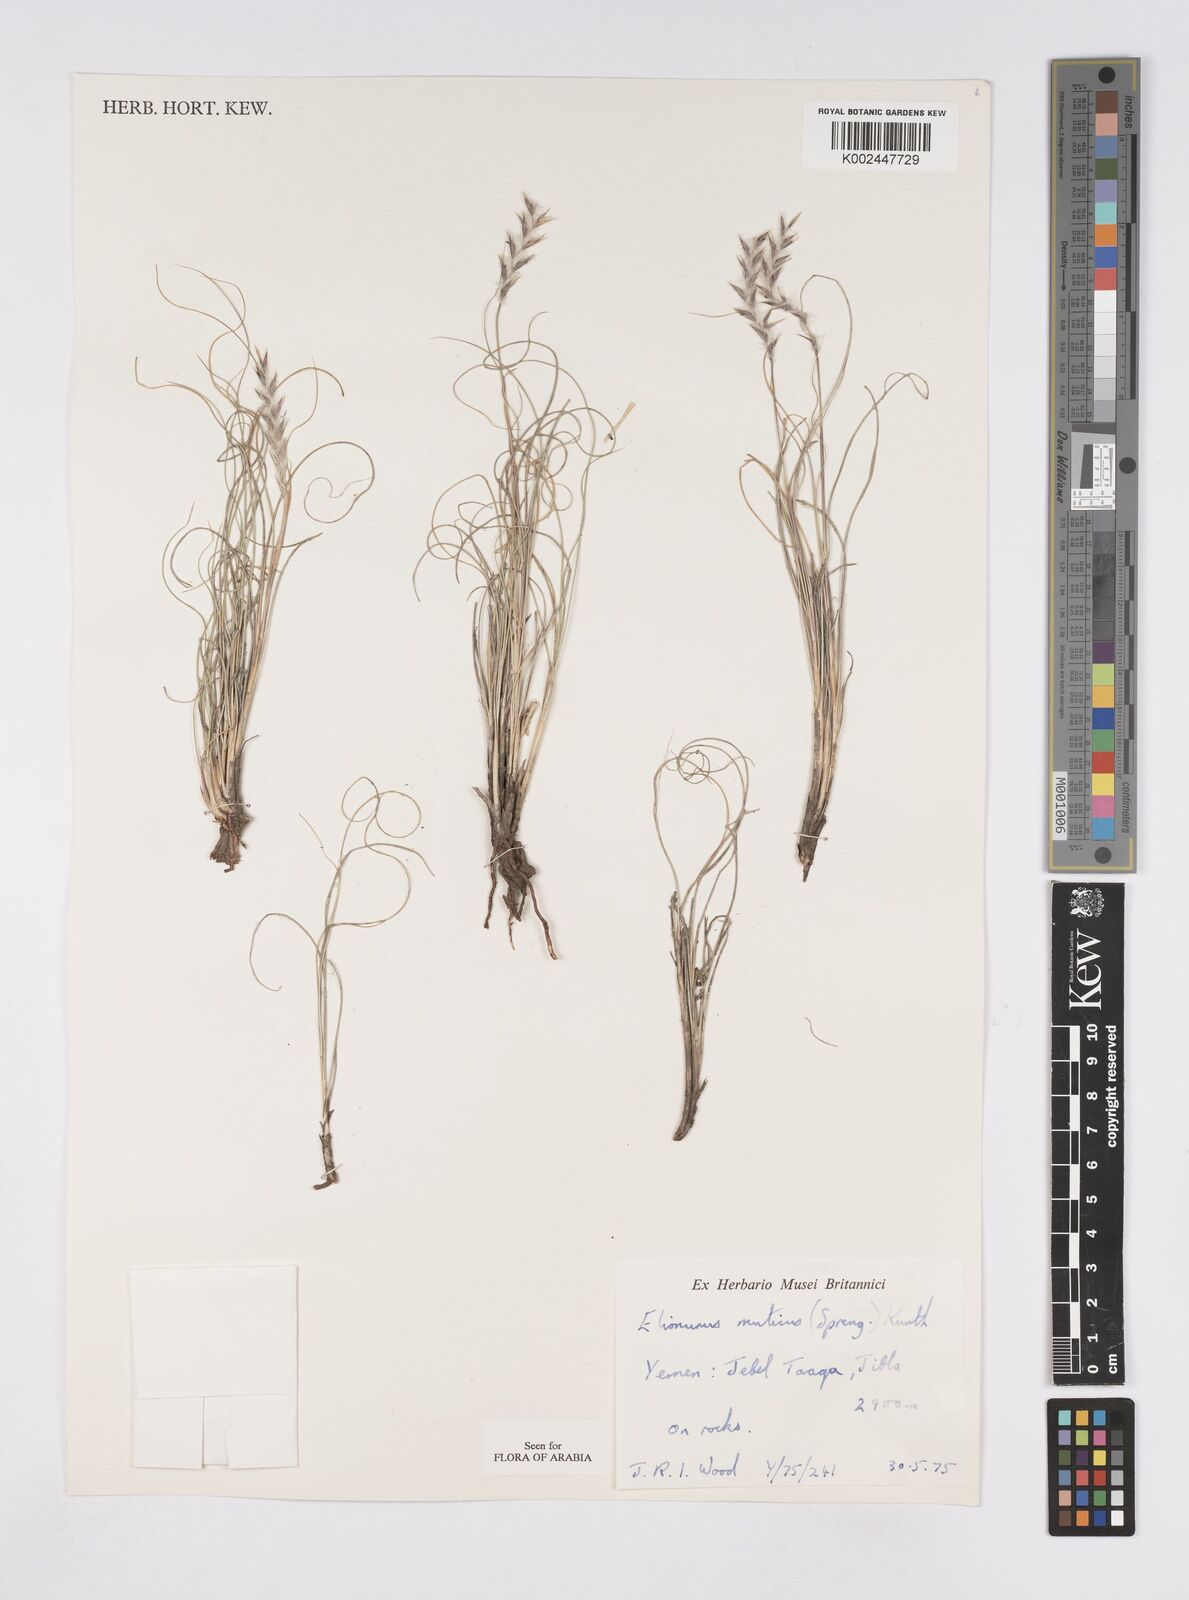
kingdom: Plantae
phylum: Tracheophyta
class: Liliopsida
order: Poales
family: Poaceae
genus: Elionurus
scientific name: Elionurus muticus
